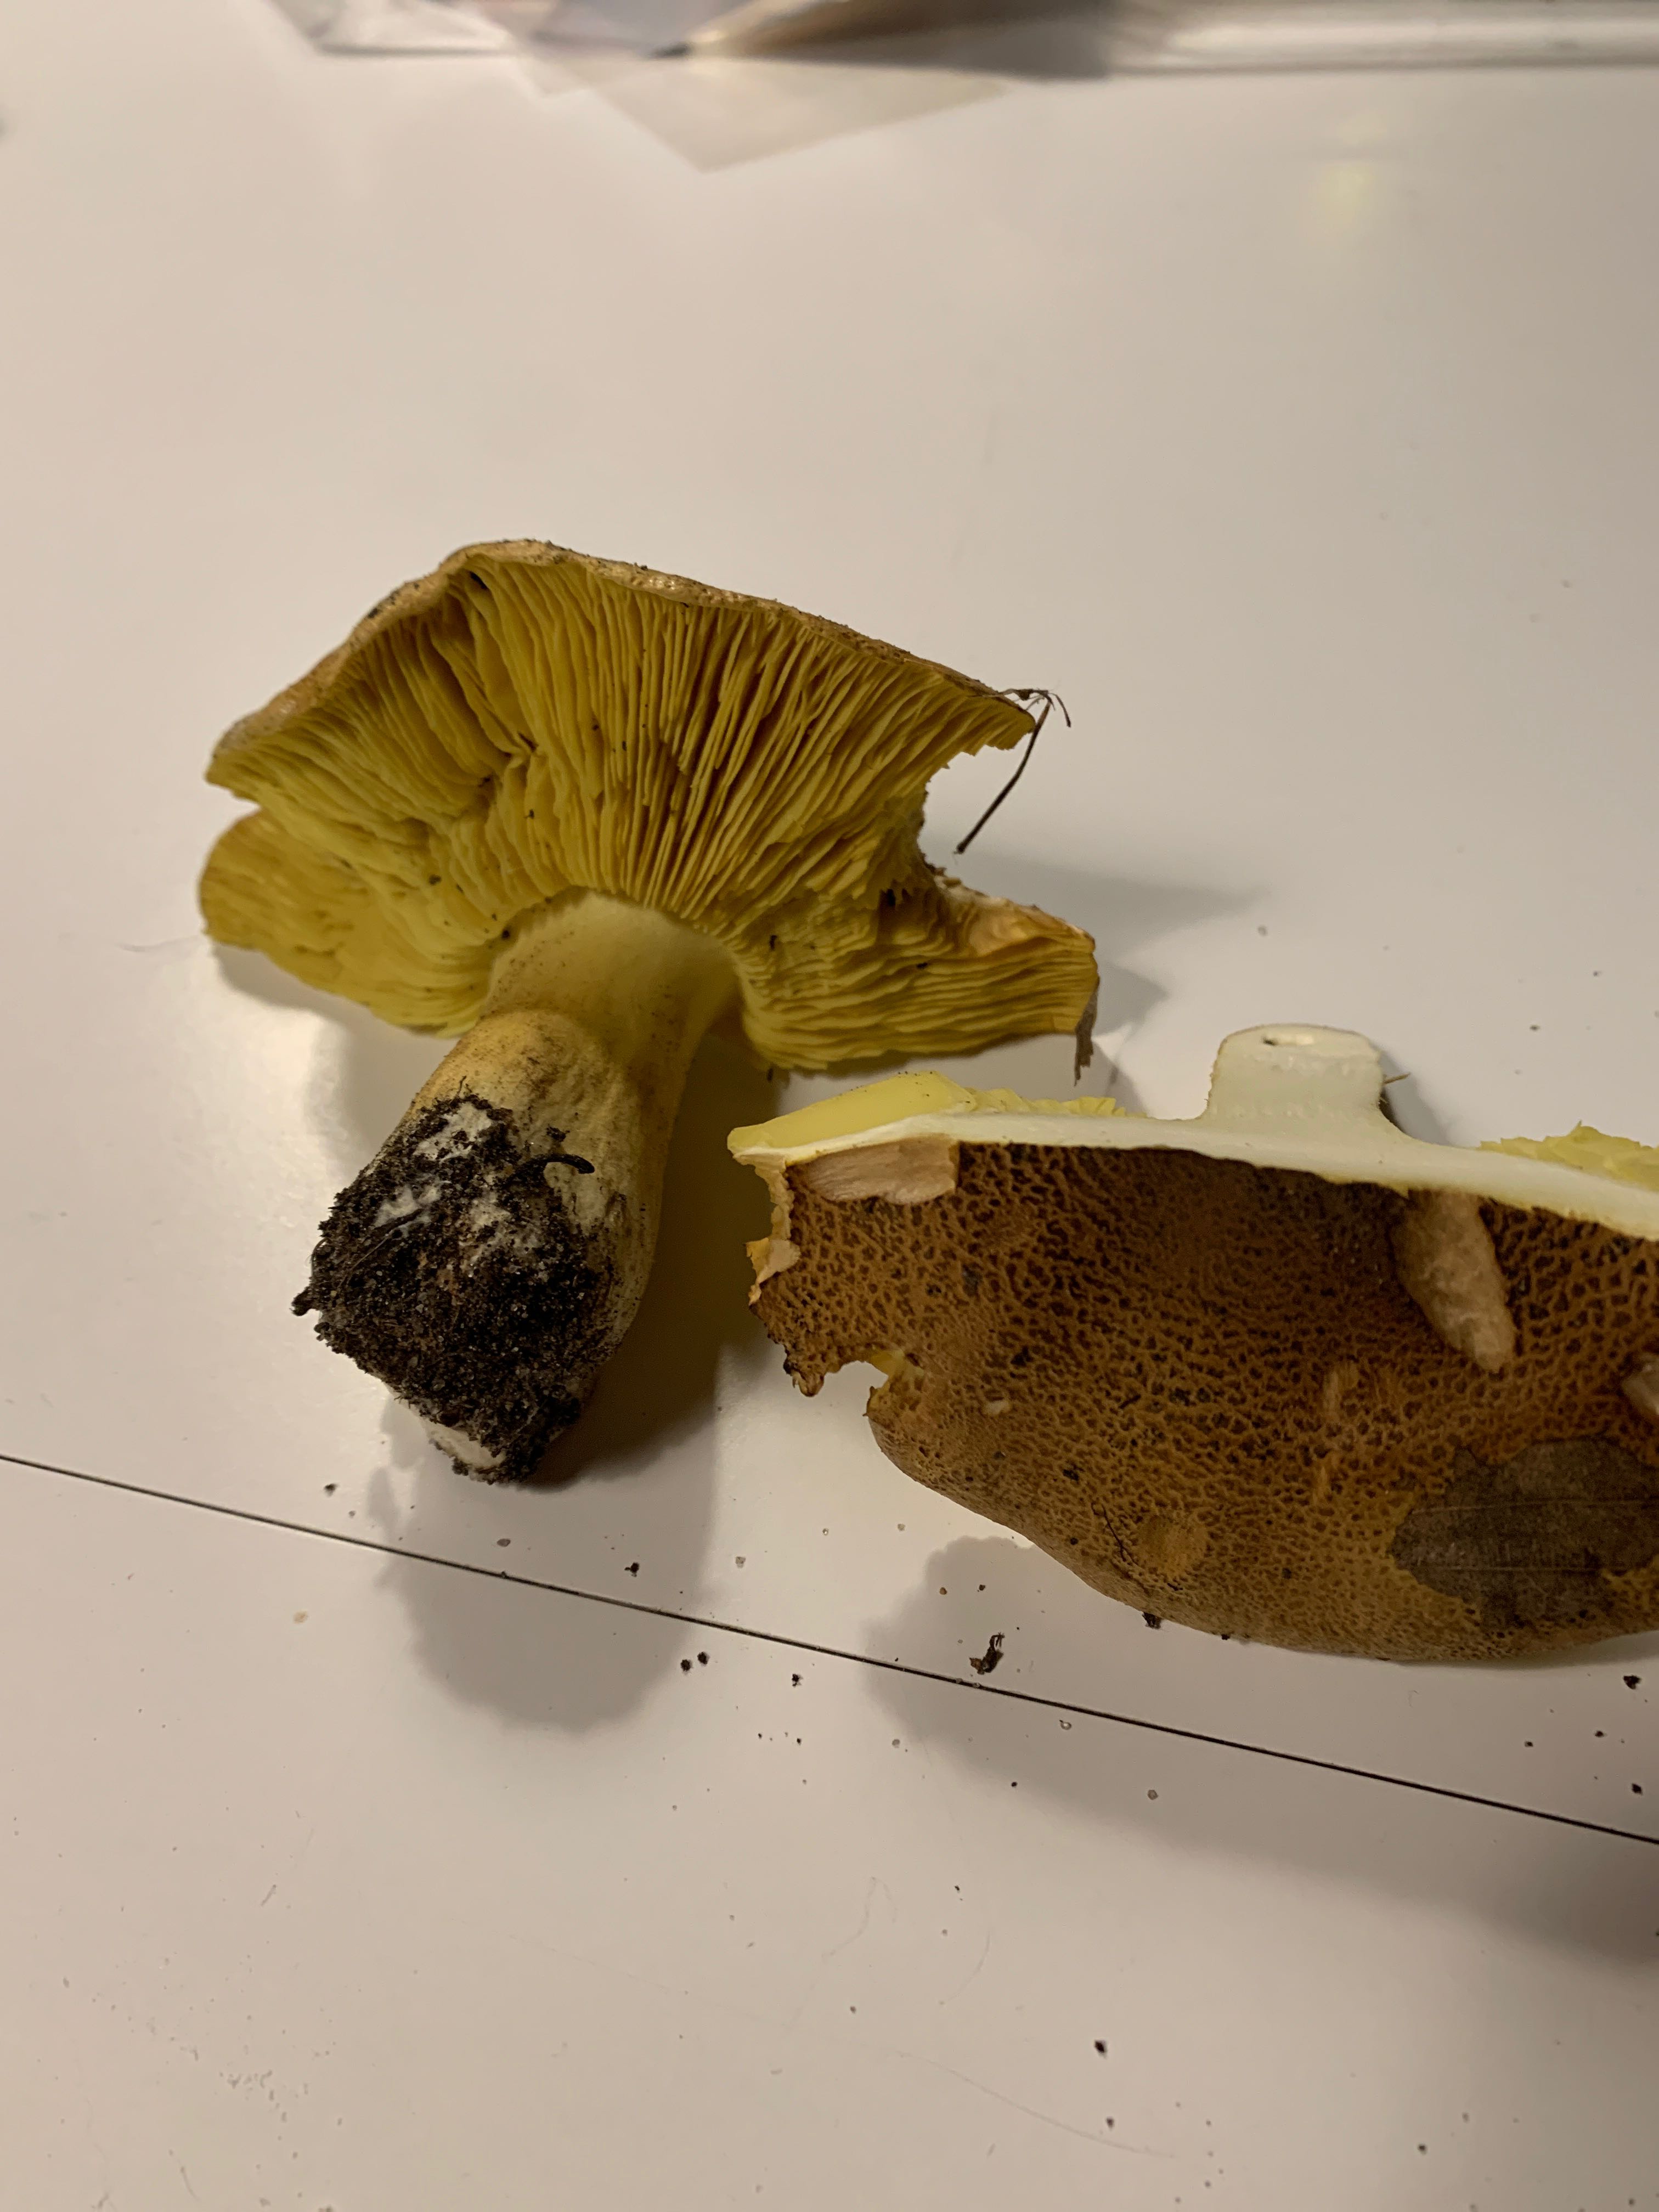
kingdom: Fungi
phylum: Basidiomycota
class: Agaricomycetes
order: Agaricales
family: Tricholomataceae
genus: Tricholoma
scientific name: Tricholoma frondosae
